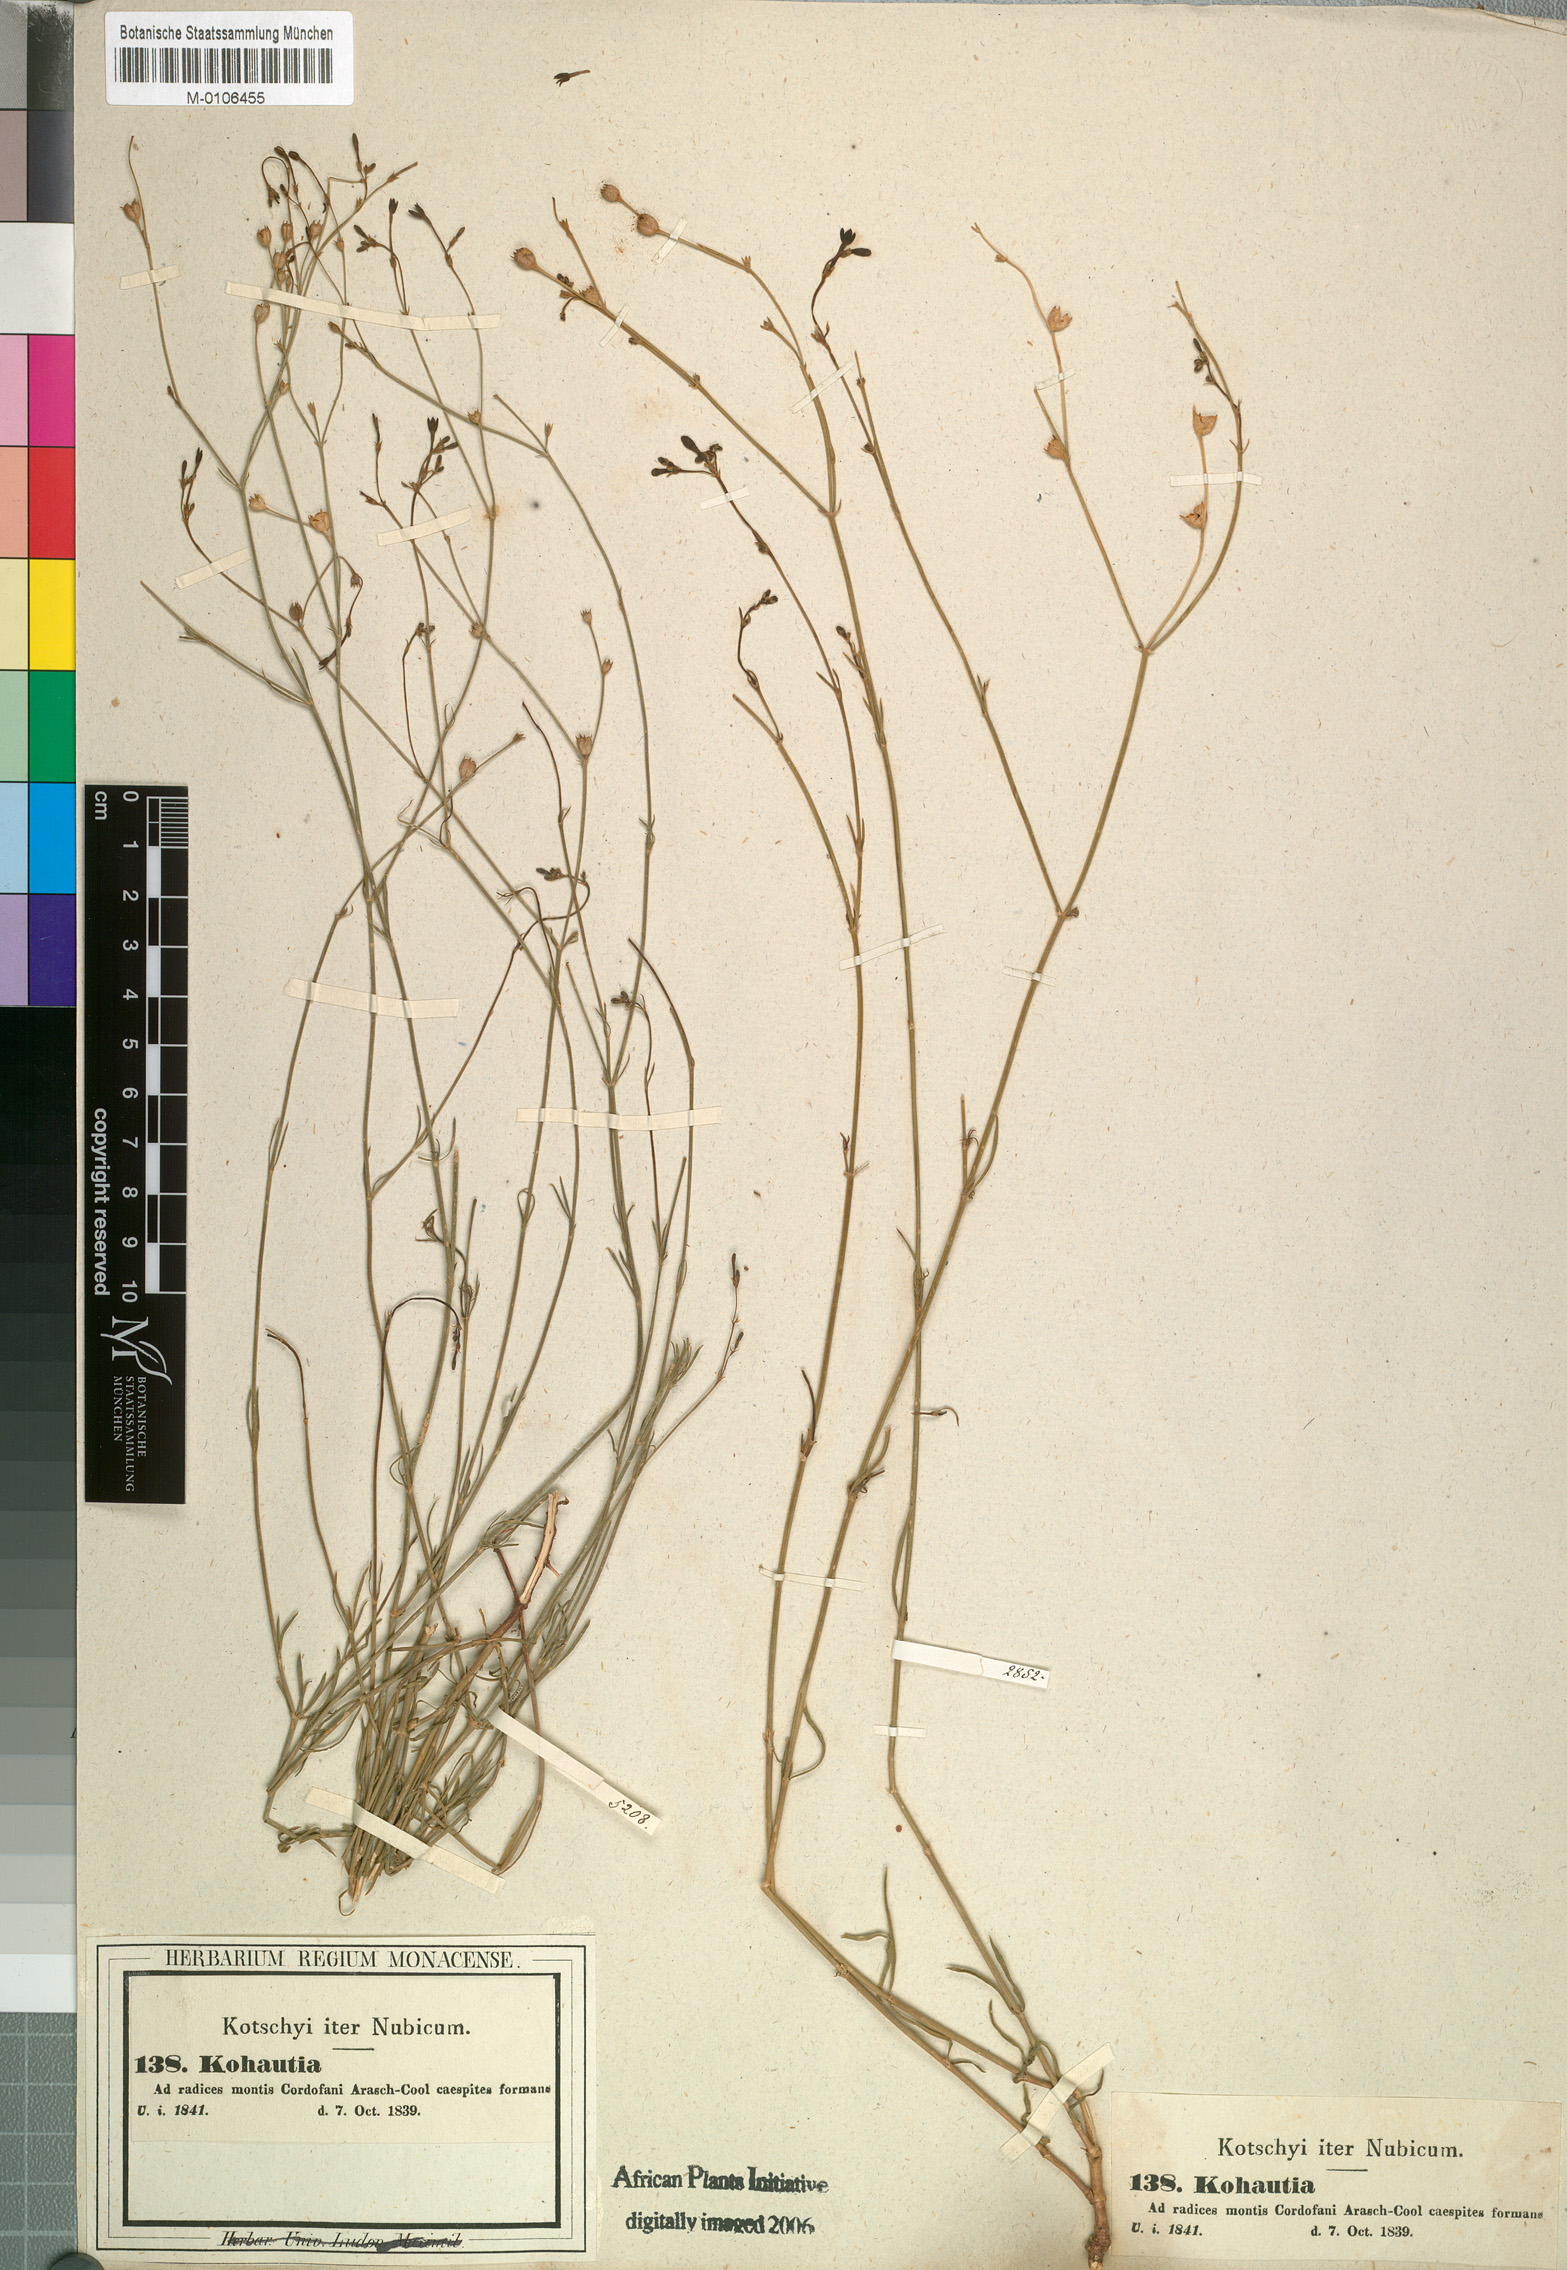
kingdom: Plantae
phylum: Tracheophyta
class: Magnoliopsida
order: Gentianales
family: Rubiaceae
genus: Kohautia
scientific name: Kohautia caespitosa
